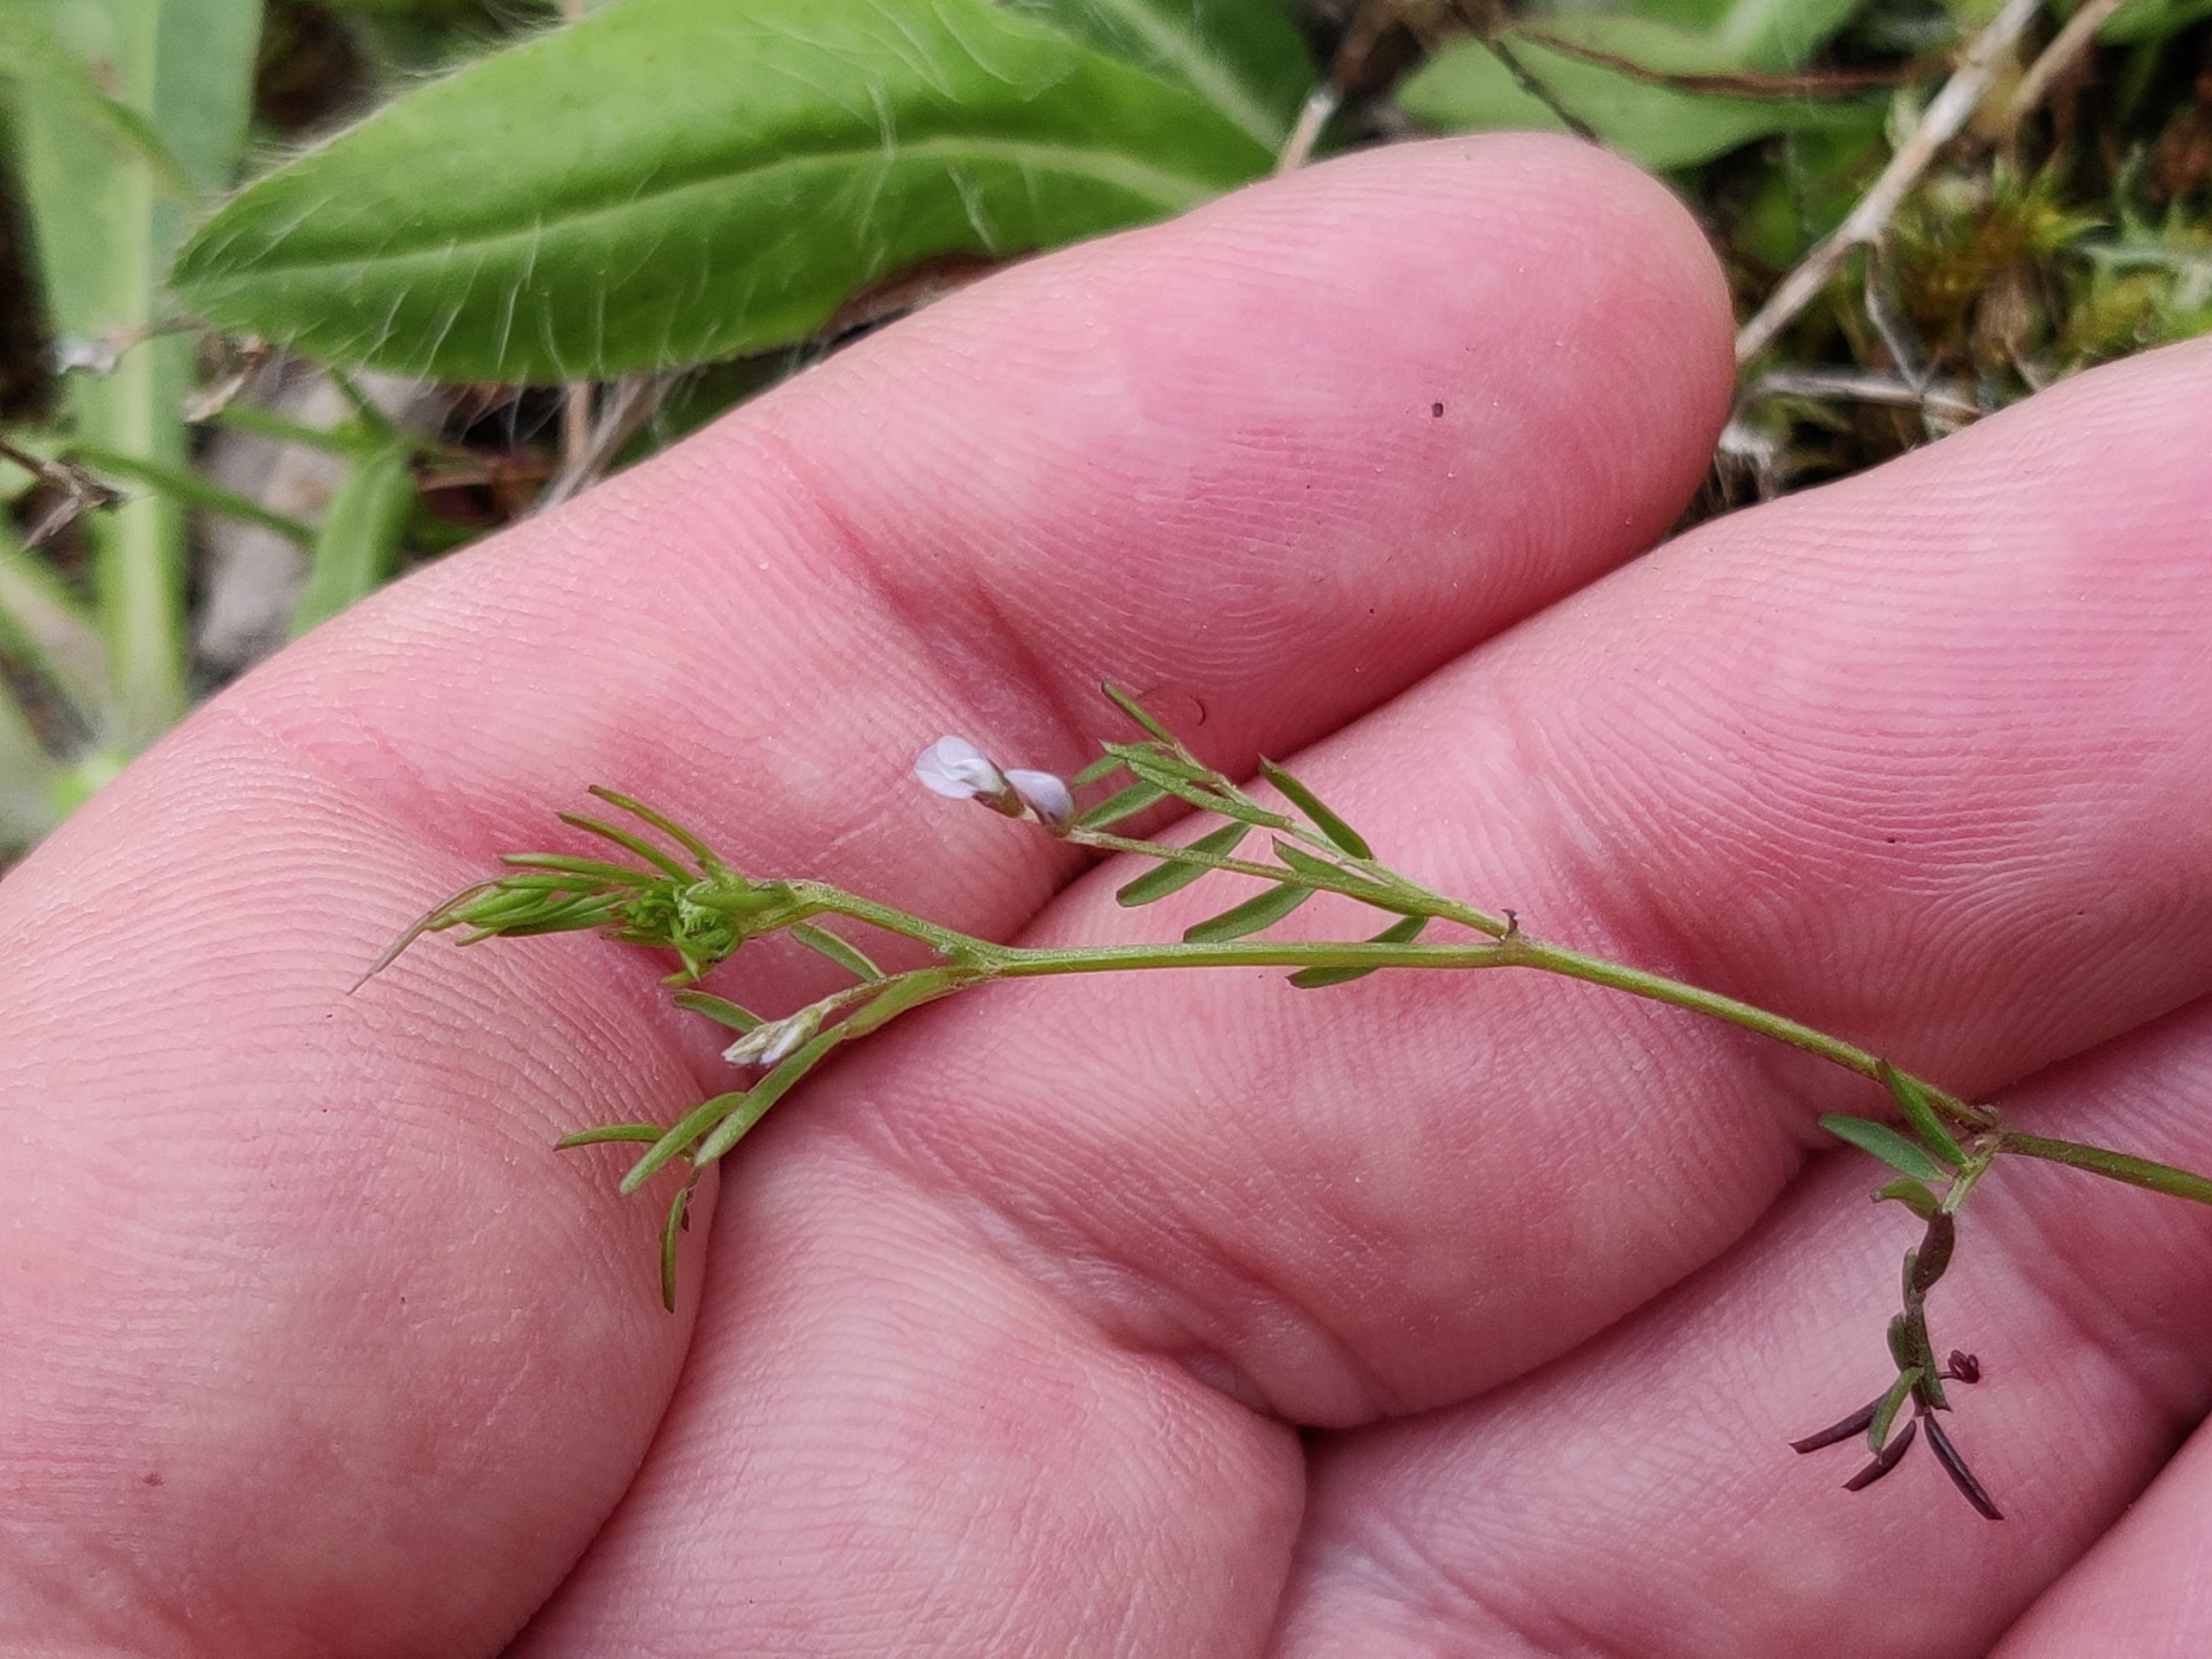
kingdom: Plantae
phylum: Tracheophyta
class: Magnoliopsida
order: Fabales
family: Fabaceae
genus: Vicia
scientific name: Vicia tetrasperma
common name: Tadder-vikke
